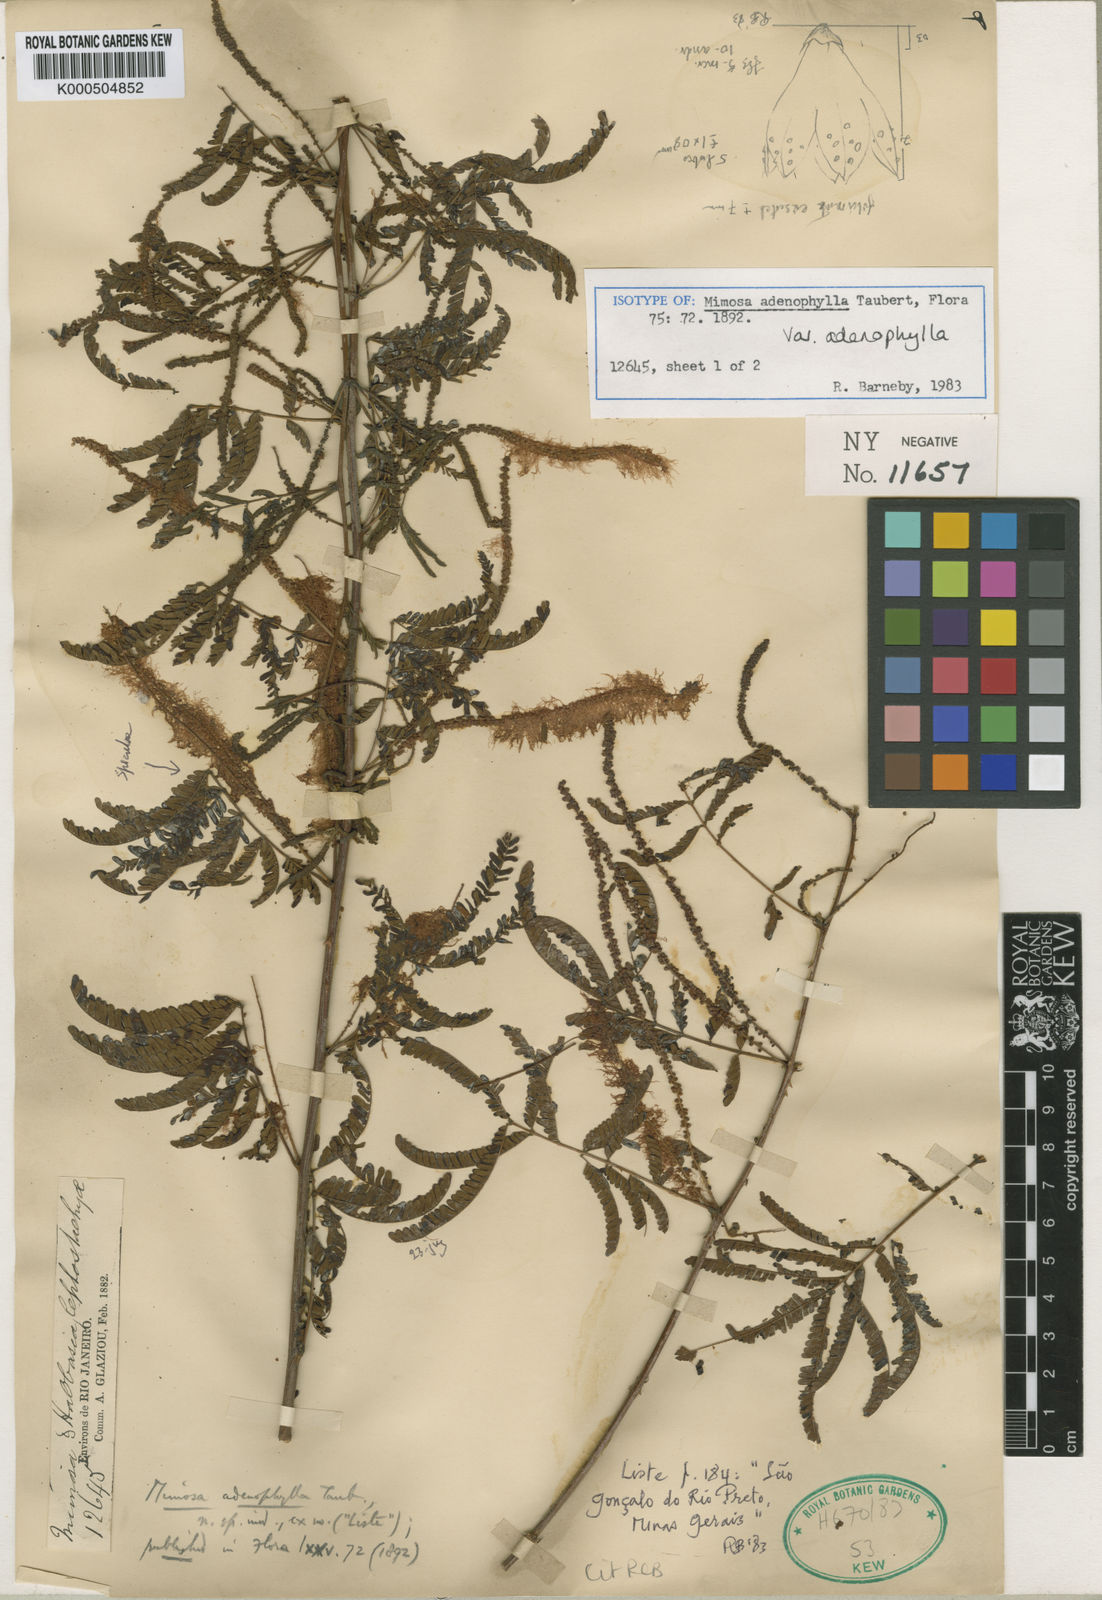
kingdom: Plantae
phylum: Tracheophyta
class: Magnoliopsida
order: Fabales
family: Fabaceae
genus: Mimosa
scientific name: Mimosa pteridifolia
